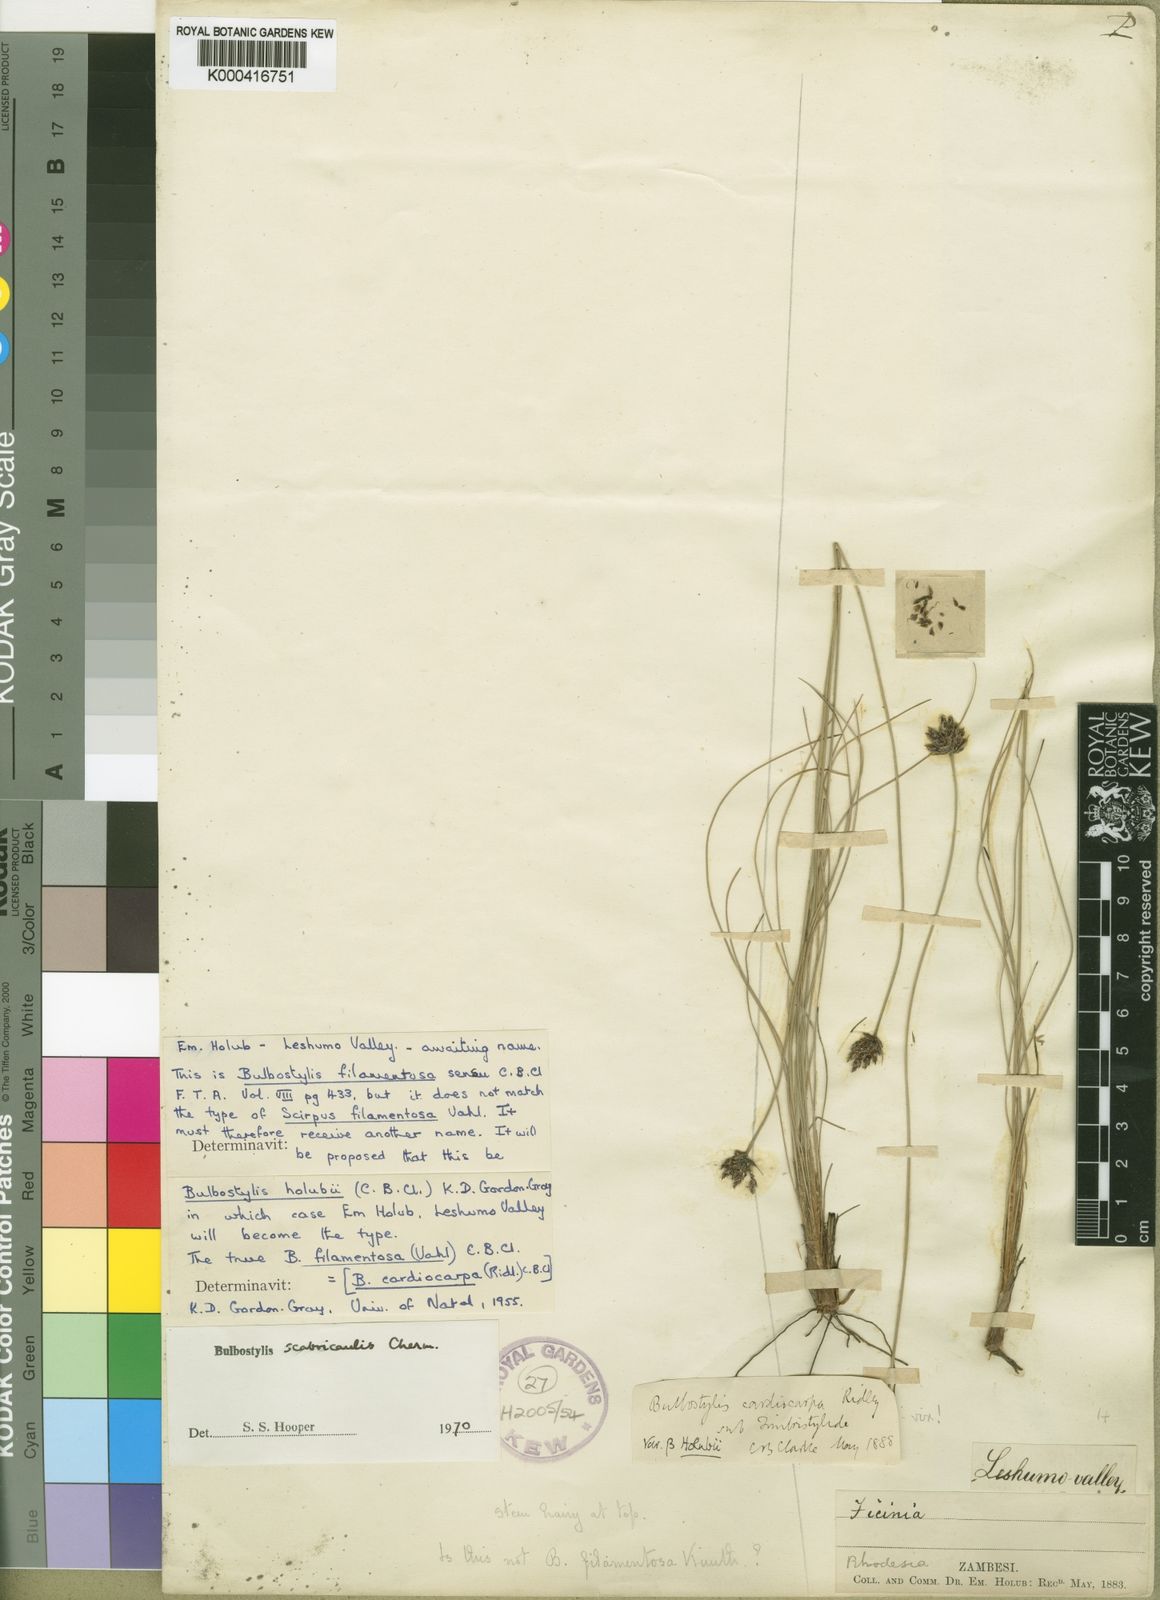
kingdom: Plantae
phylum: Tracheophyta
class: Liliopsida
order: Poales
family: Cyperaceae
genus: Bulbostylis
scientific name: Bulbostylis scabricaulis
